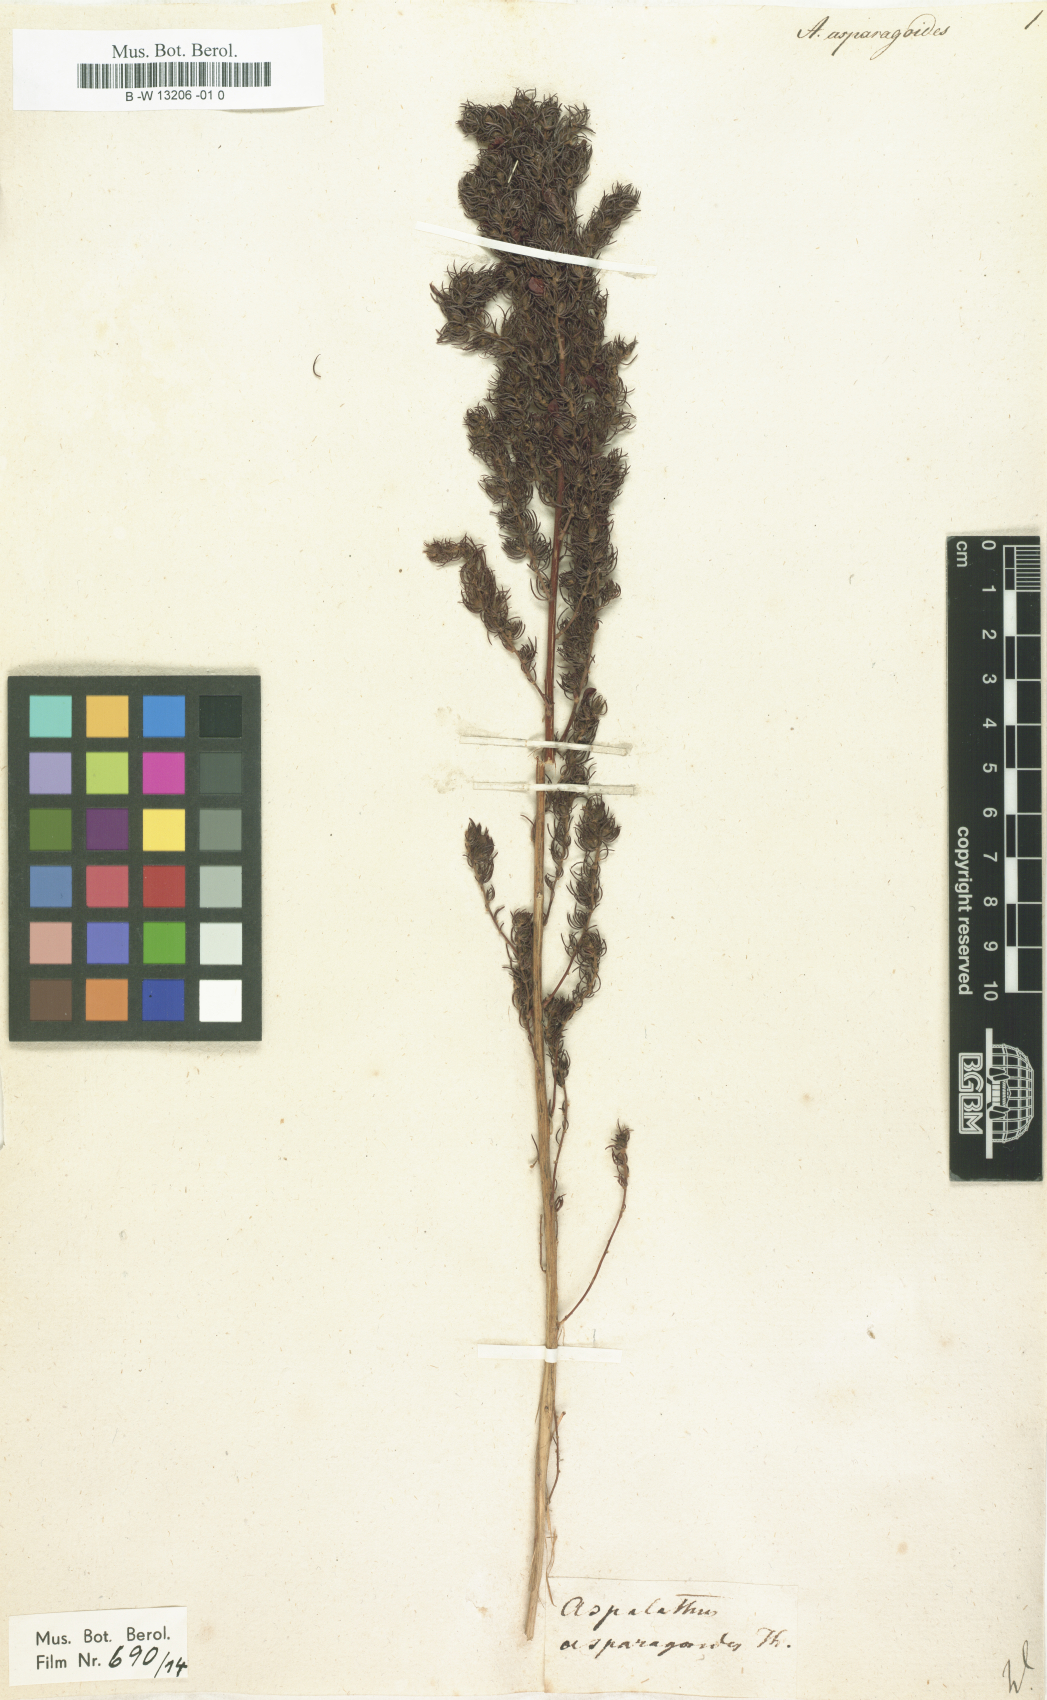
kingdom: Plantae
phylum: Tracheophyta
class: Magnoliopsida
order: Fabales
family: Fabaceae
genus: Aspalathus
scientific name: Aspalathus asparagoides
